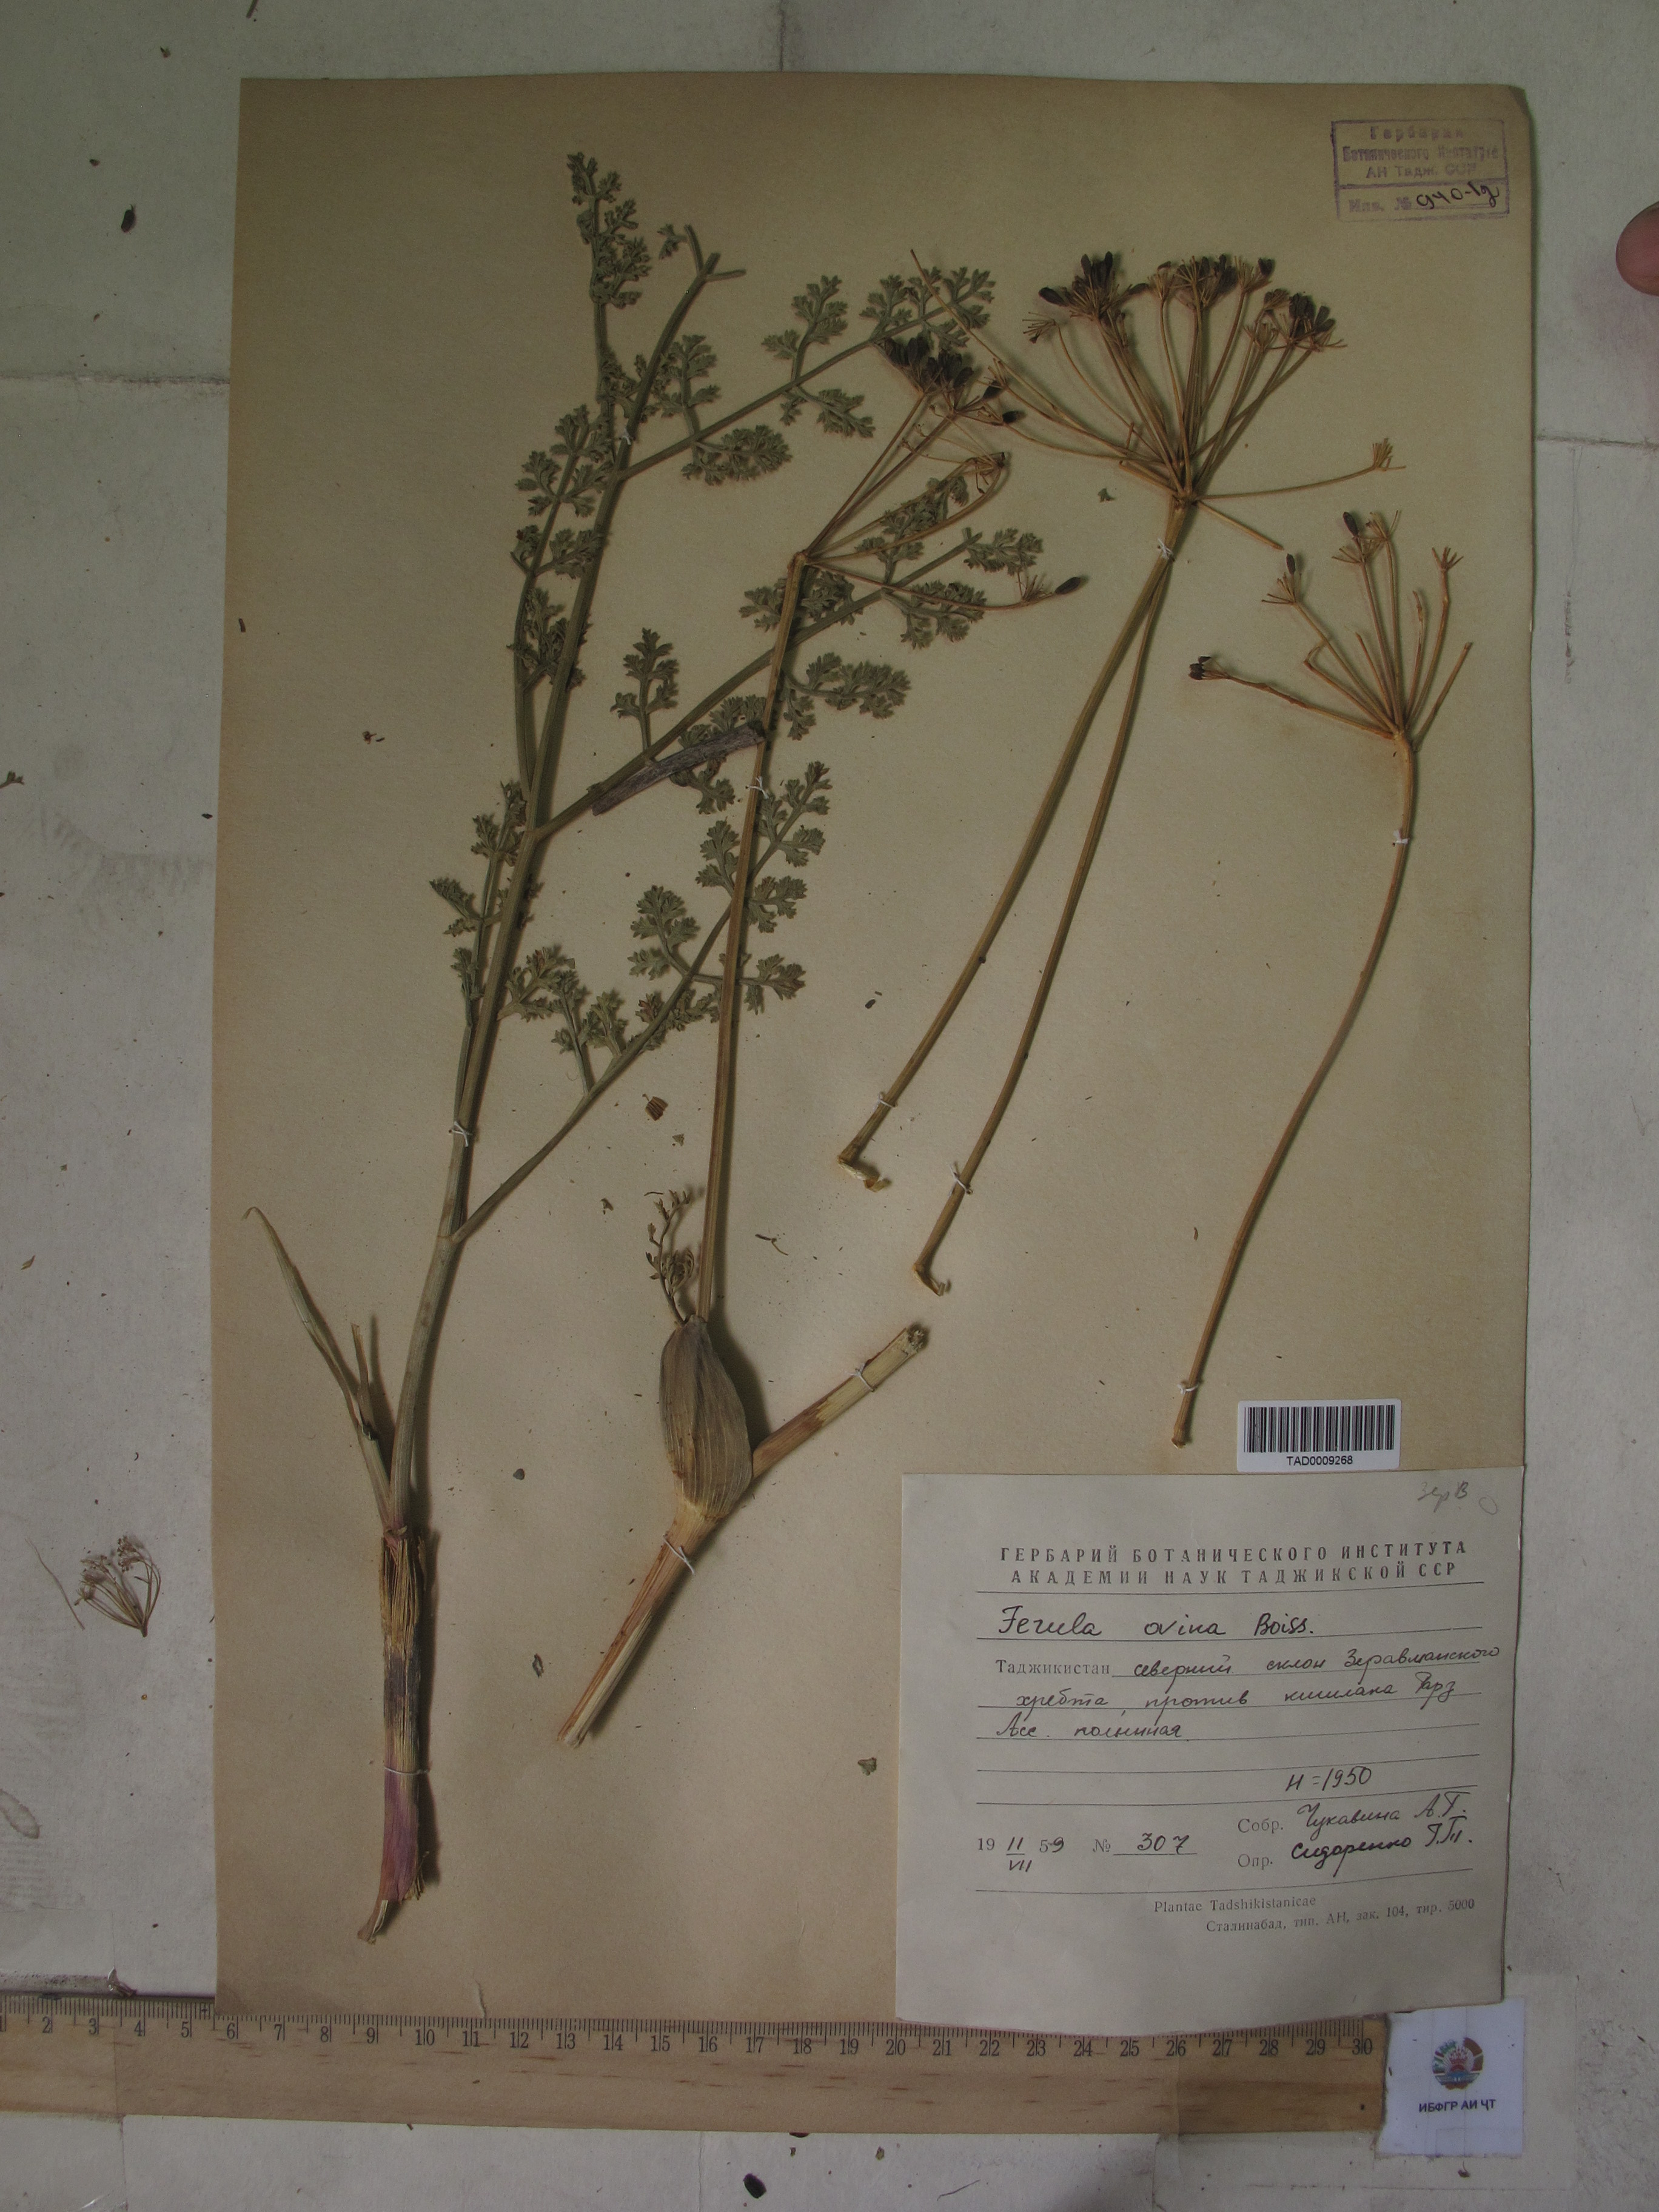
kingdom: Plantae
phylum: Tracheophyta
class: Magnoliopsida
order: Apiales
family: Apiaceae
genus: Ferula
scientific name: Ferula ovina
